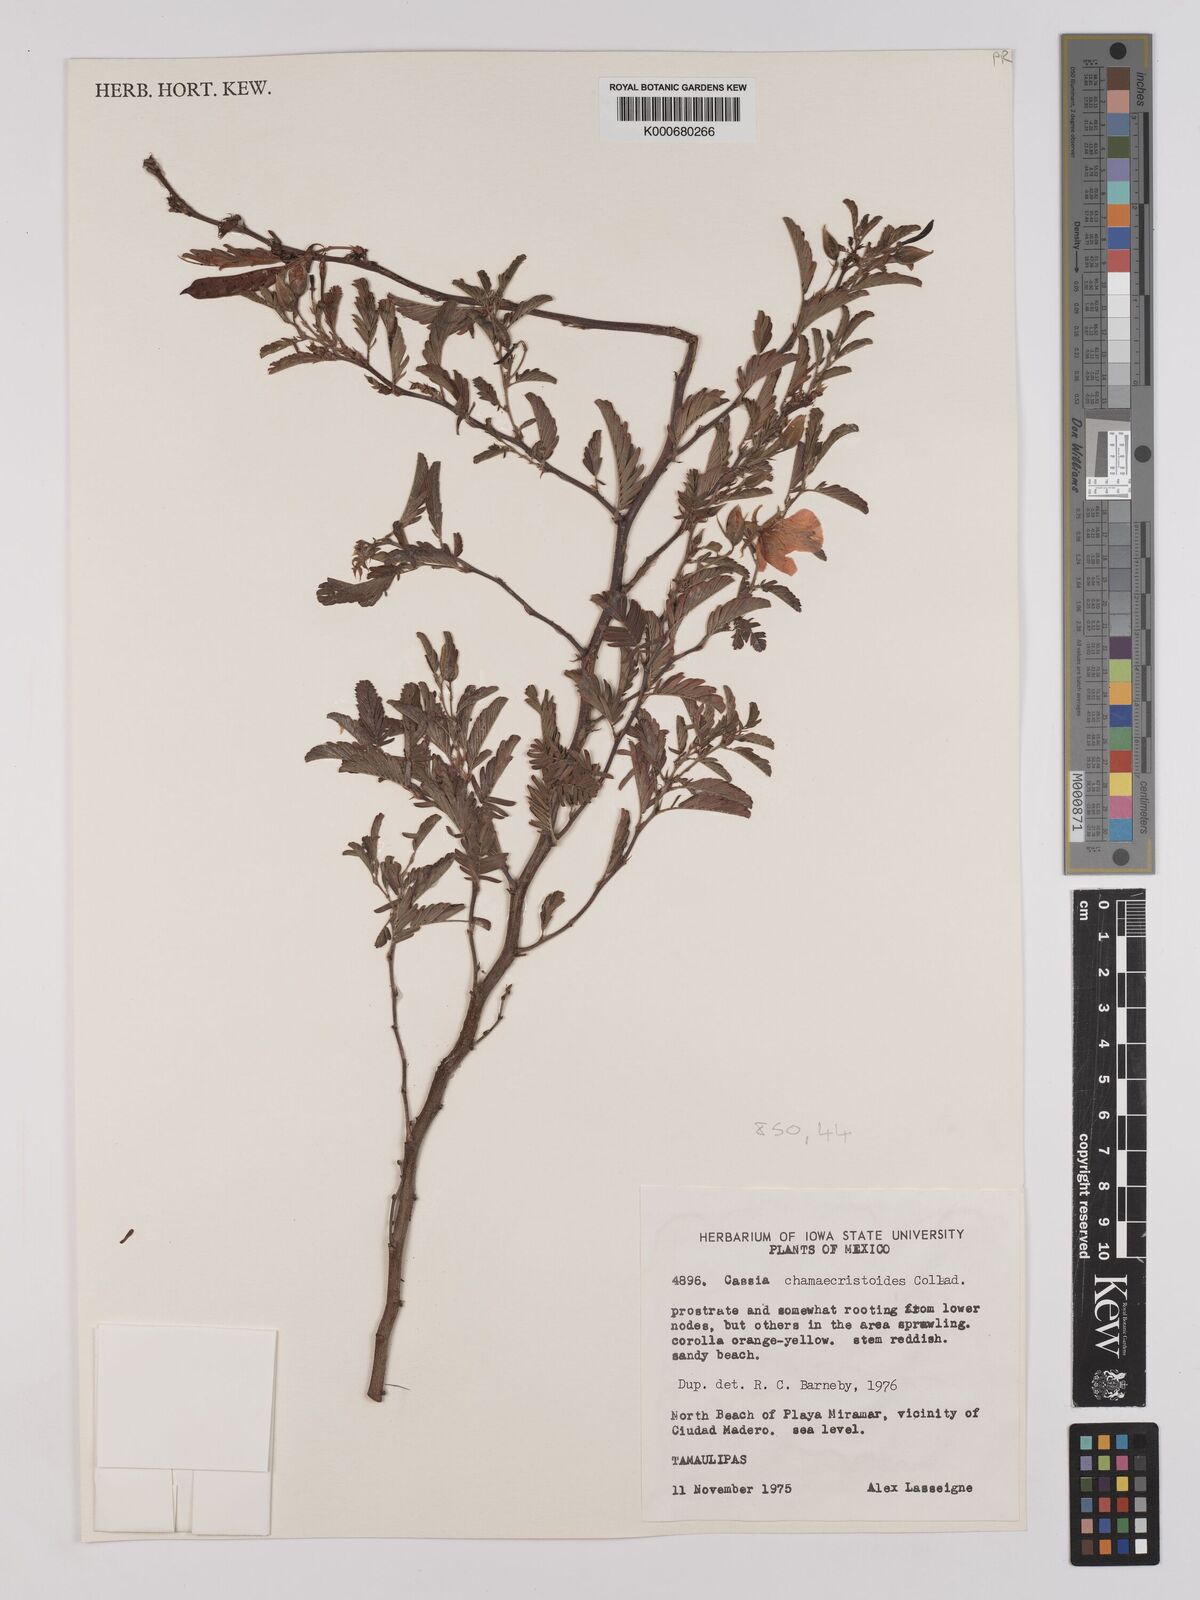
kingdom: Plantae
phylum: Tracheophyta
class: Magnoliopsida
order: Fabales
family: Fabaceae
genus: Chamaecrista
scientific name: Chamaecrista chamaecristoides
